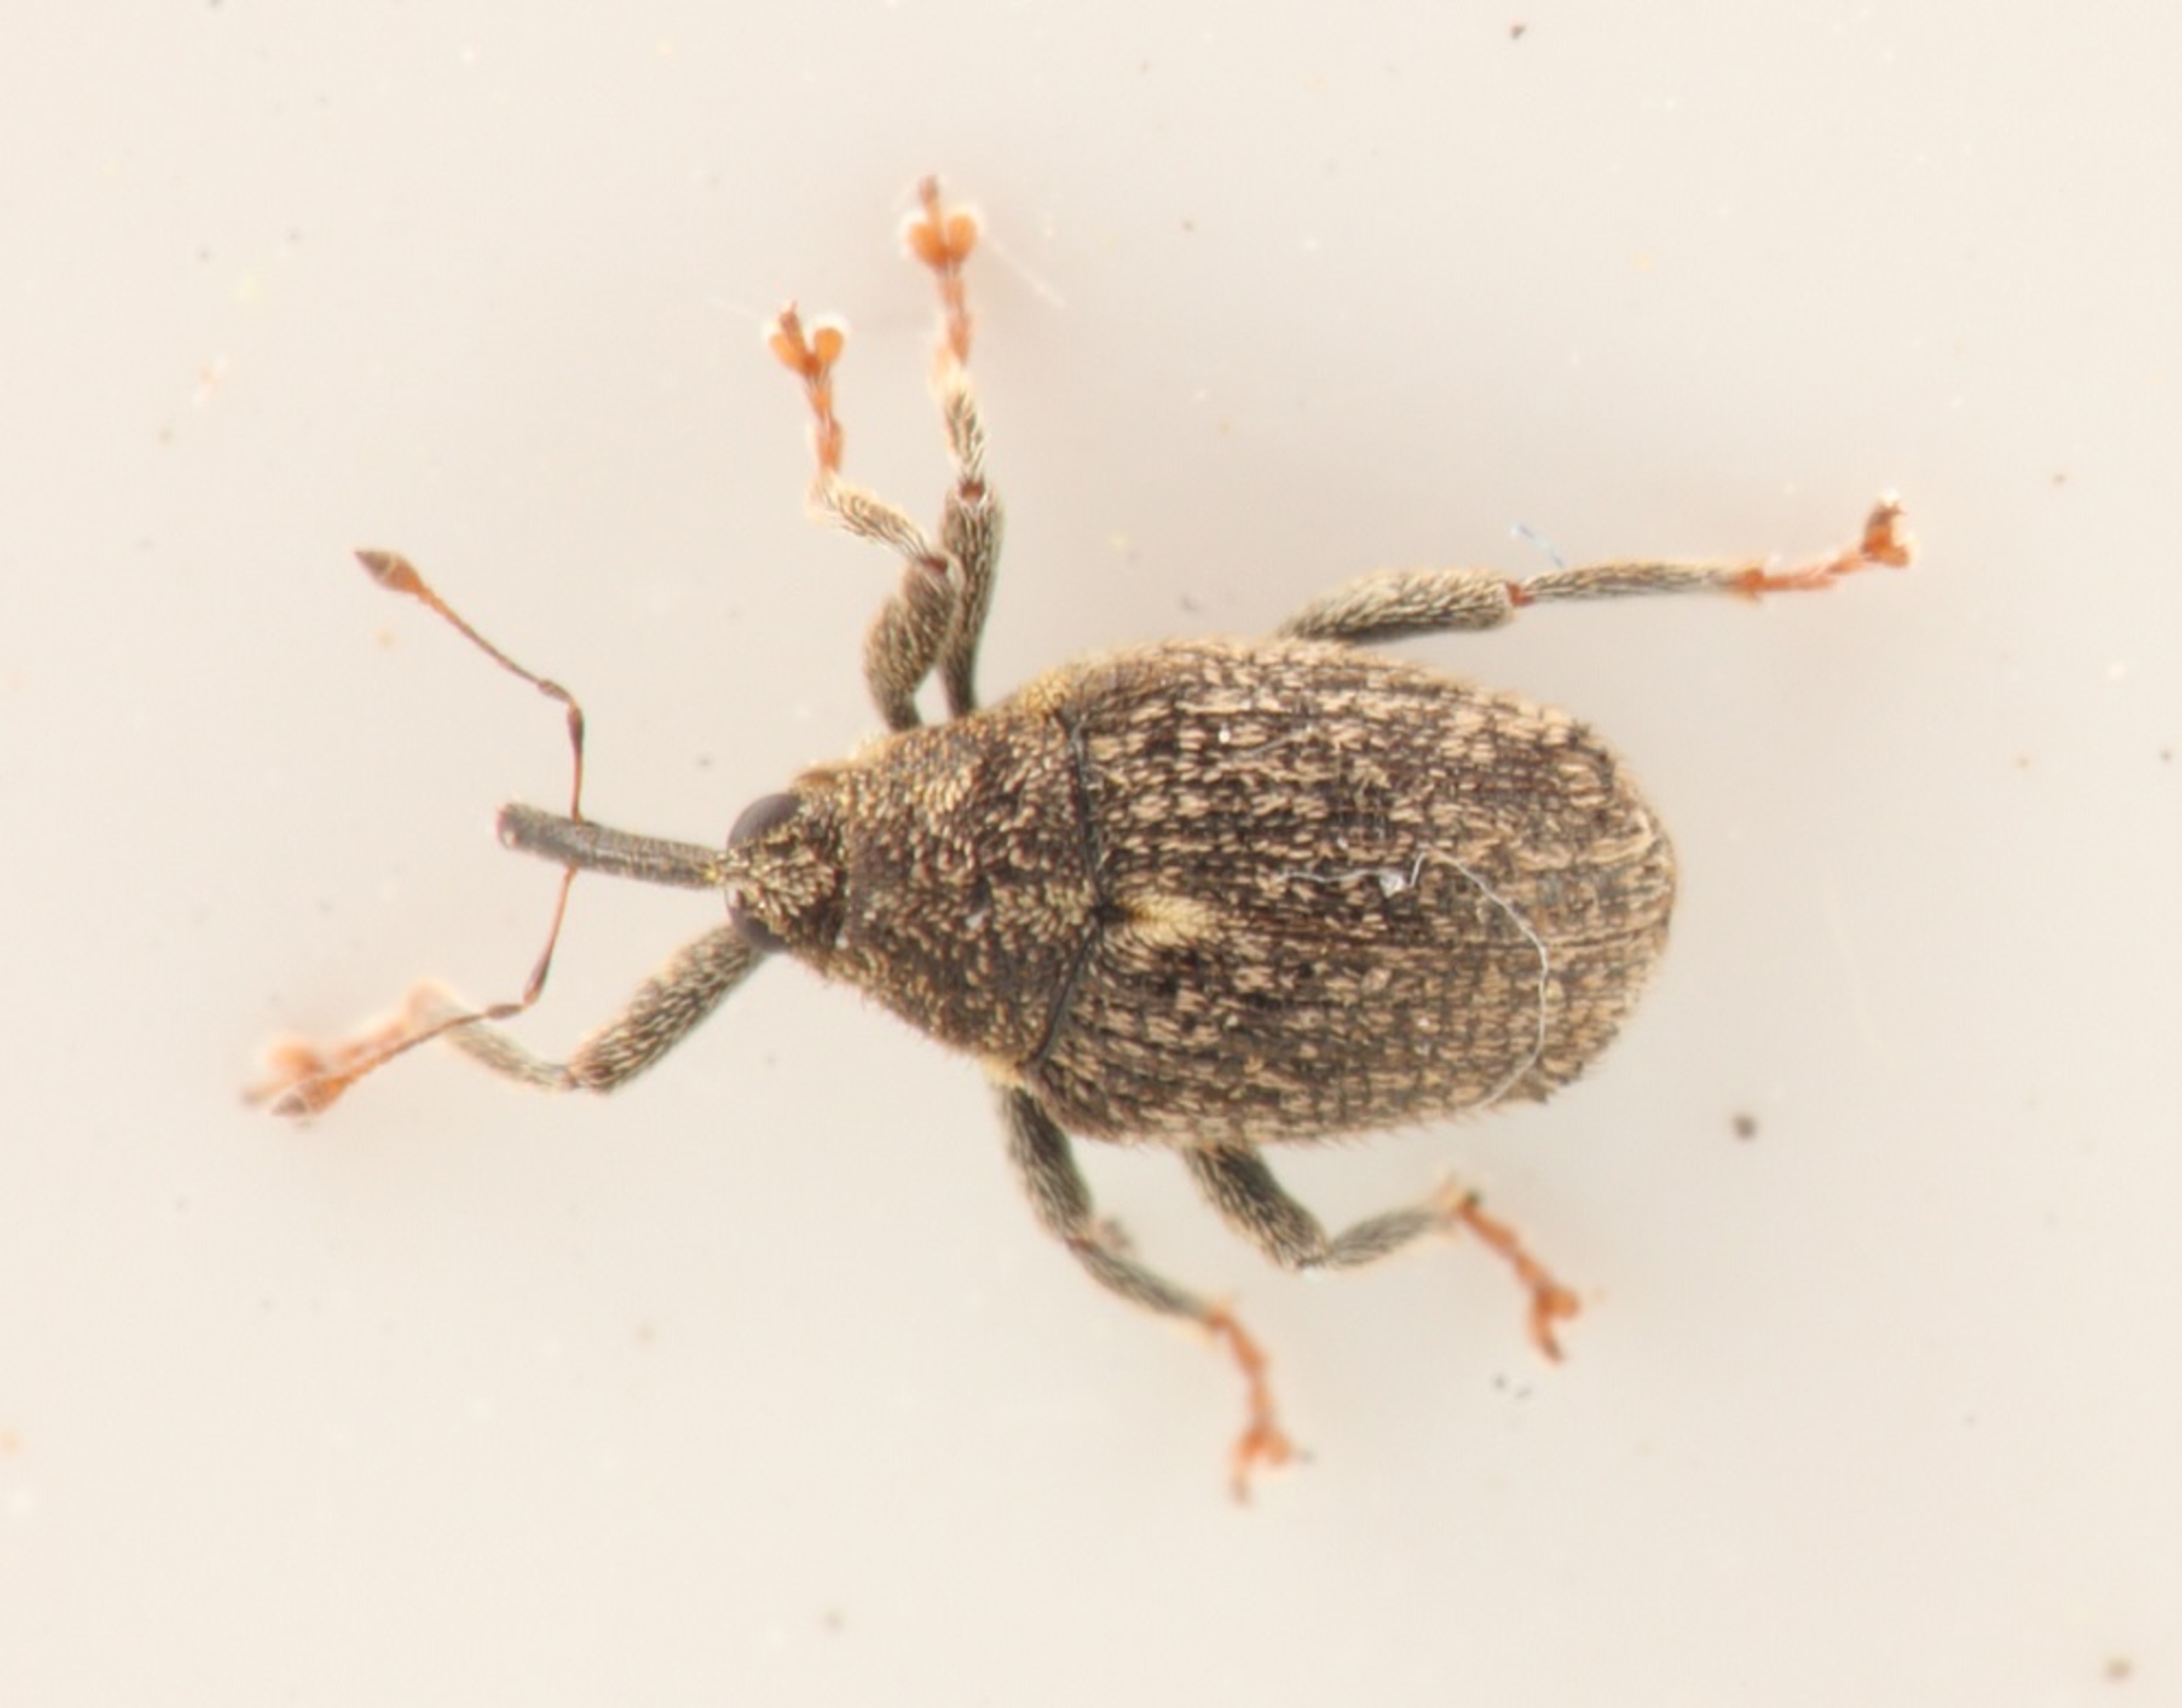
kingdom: Animalia
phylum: Arthropoda
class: Insecta
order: Coleoptera
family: Curculionidae
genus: Ceutorhynchus
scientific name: Ceutorhynchus pallidactylus
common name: Bladribbesnudebille
